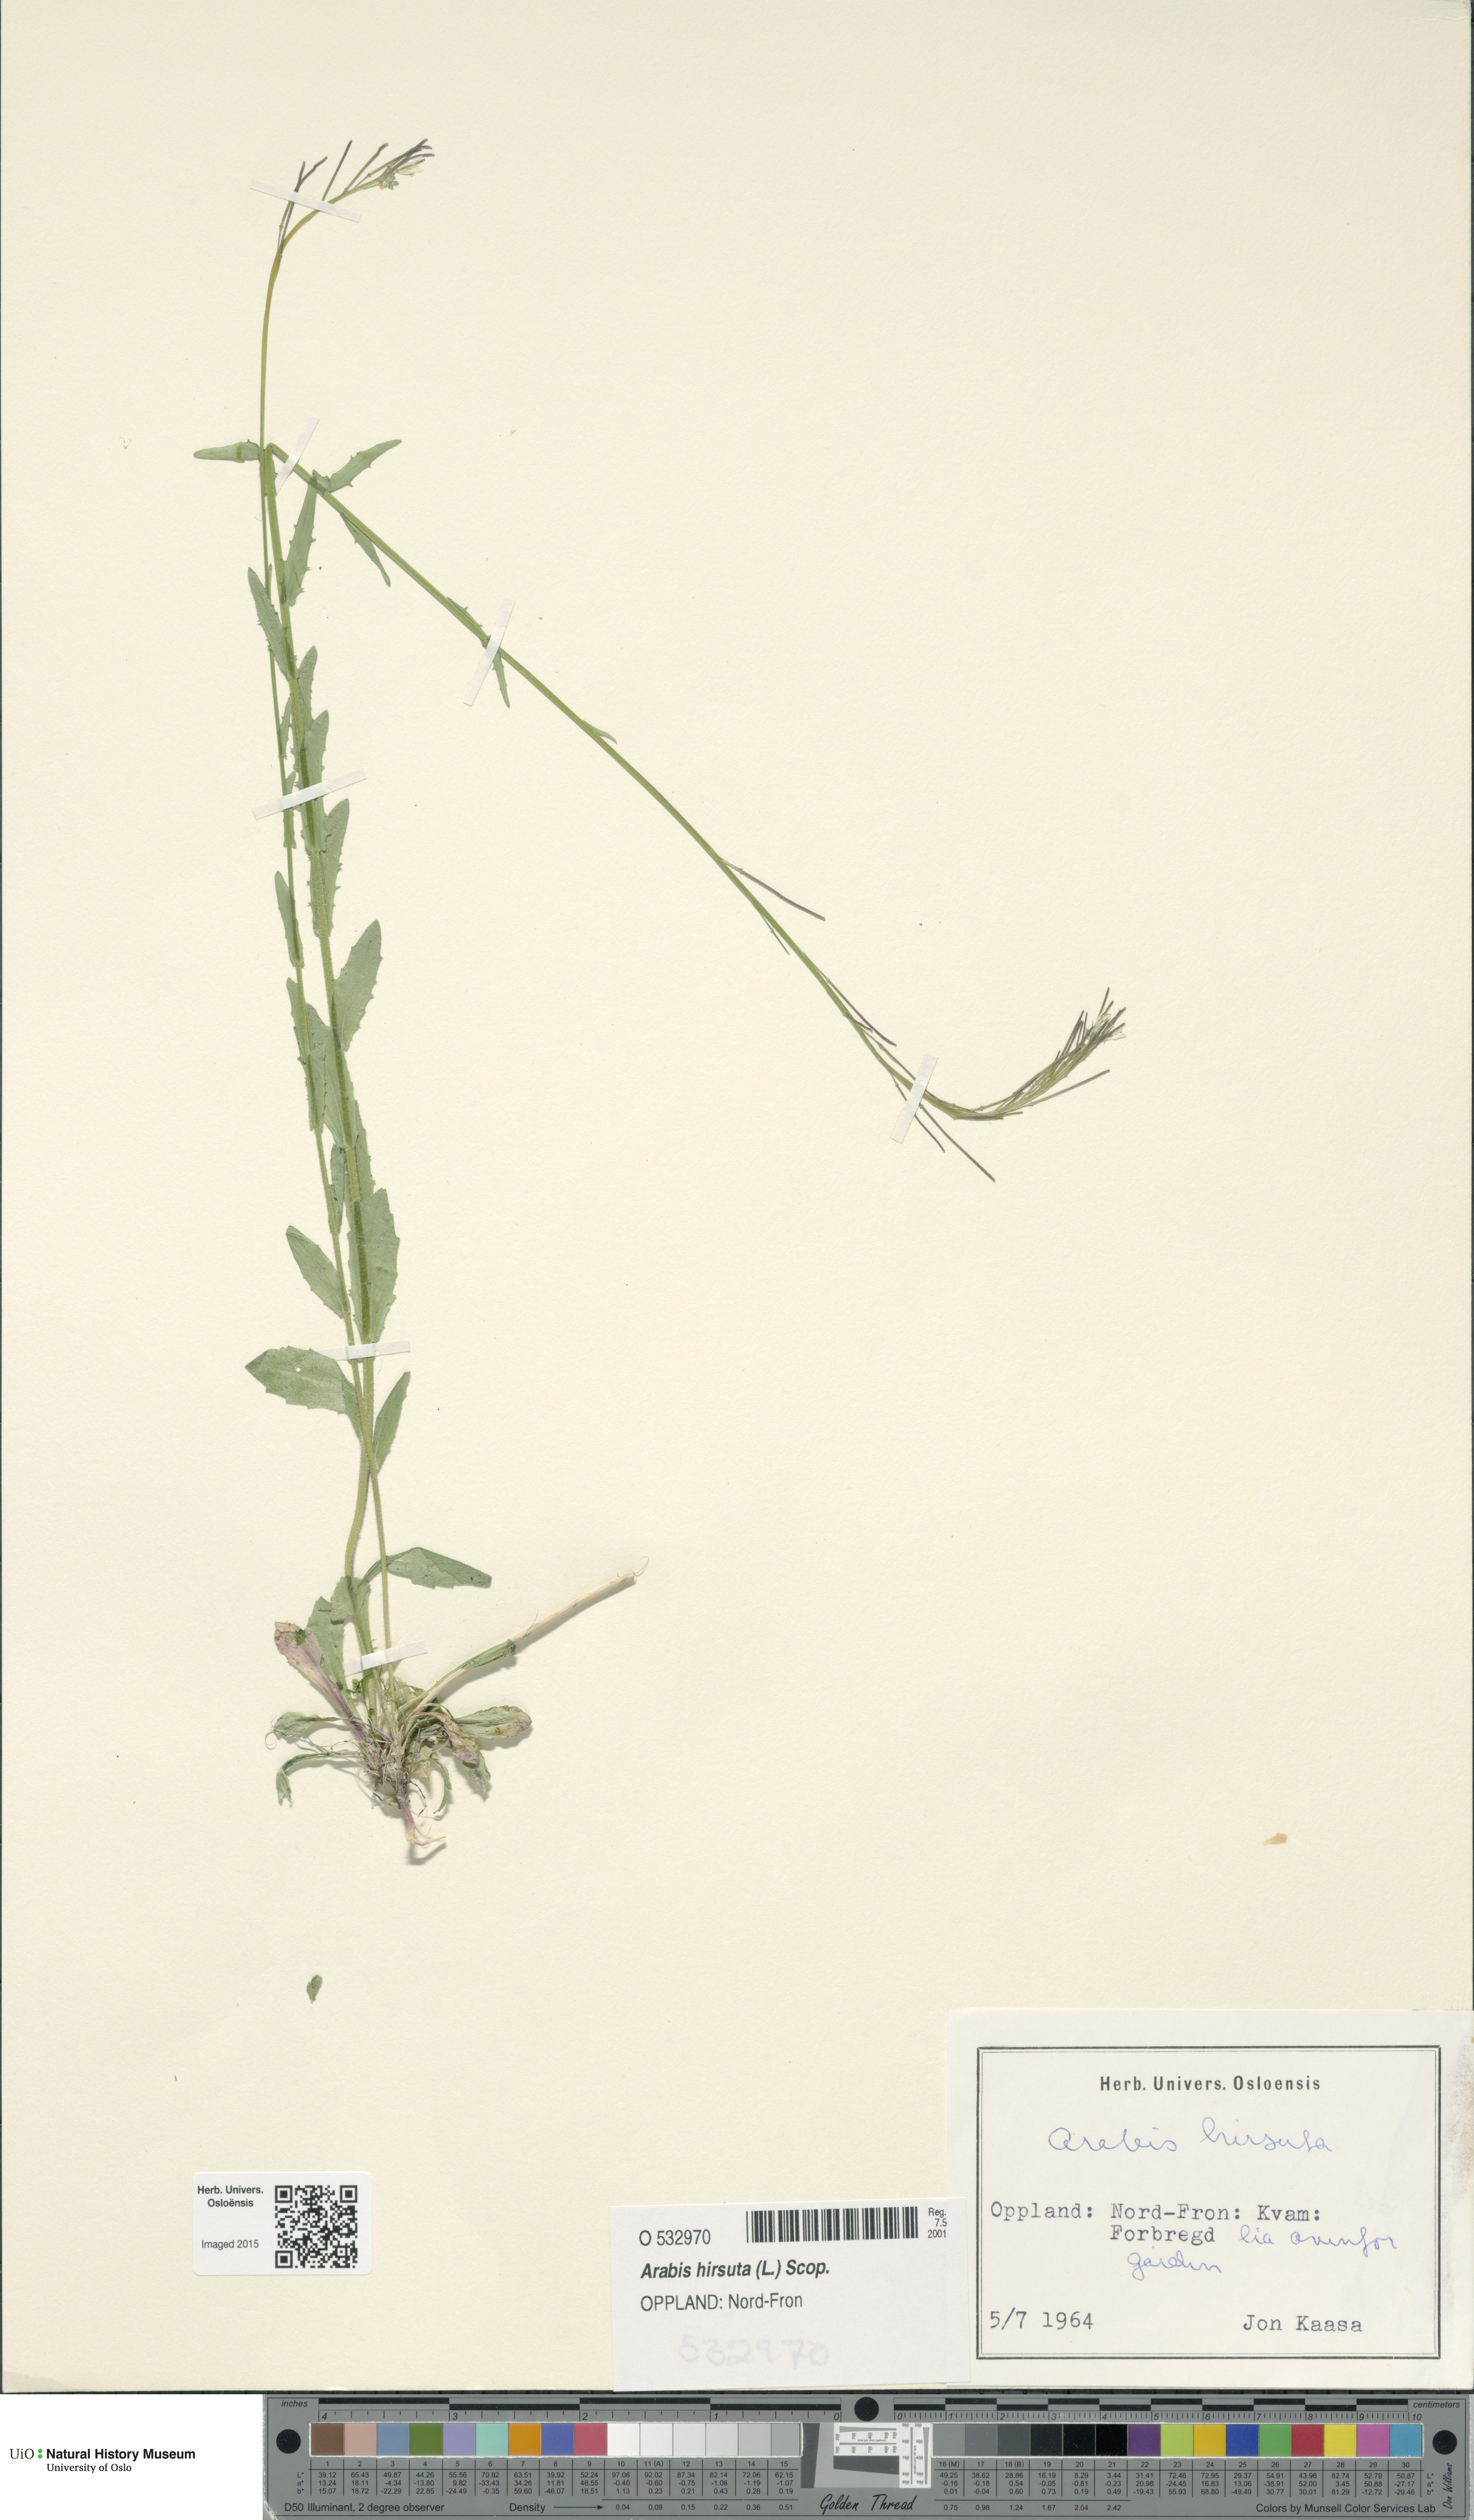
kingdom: Plantae
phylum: Tracheophyta
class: Magnoliopsida
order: Brassicales
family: Brassicaceae
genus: Arabis
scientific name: Arabis hirsuta
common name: Hairy rock-cress
